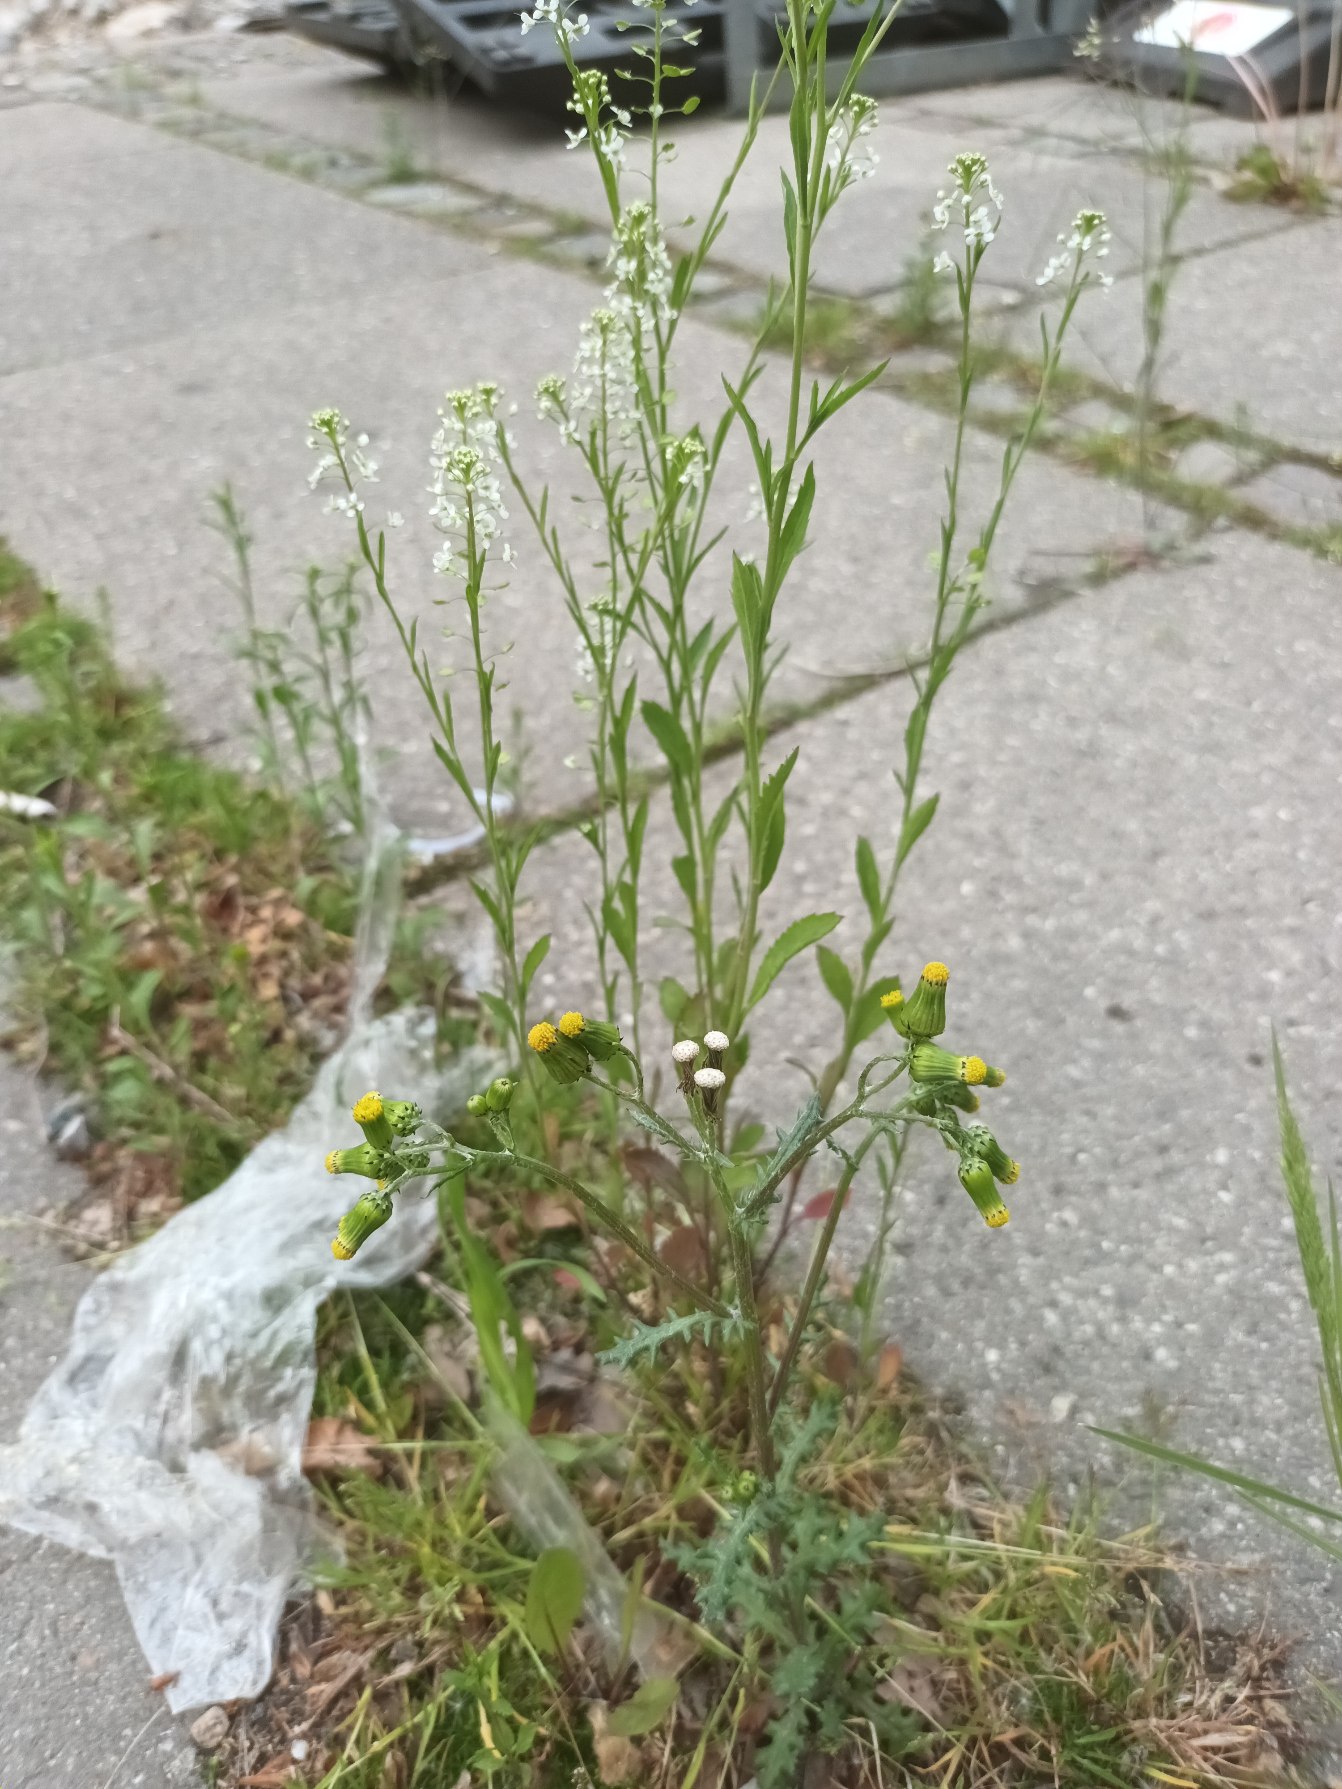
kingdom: Plantae
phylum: Tracheophyta
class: Magnoliopsida
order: Brassicales
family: Brassicaceae
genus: Lepidium
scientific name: Lepidium virginicum
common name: Virginsk karse
